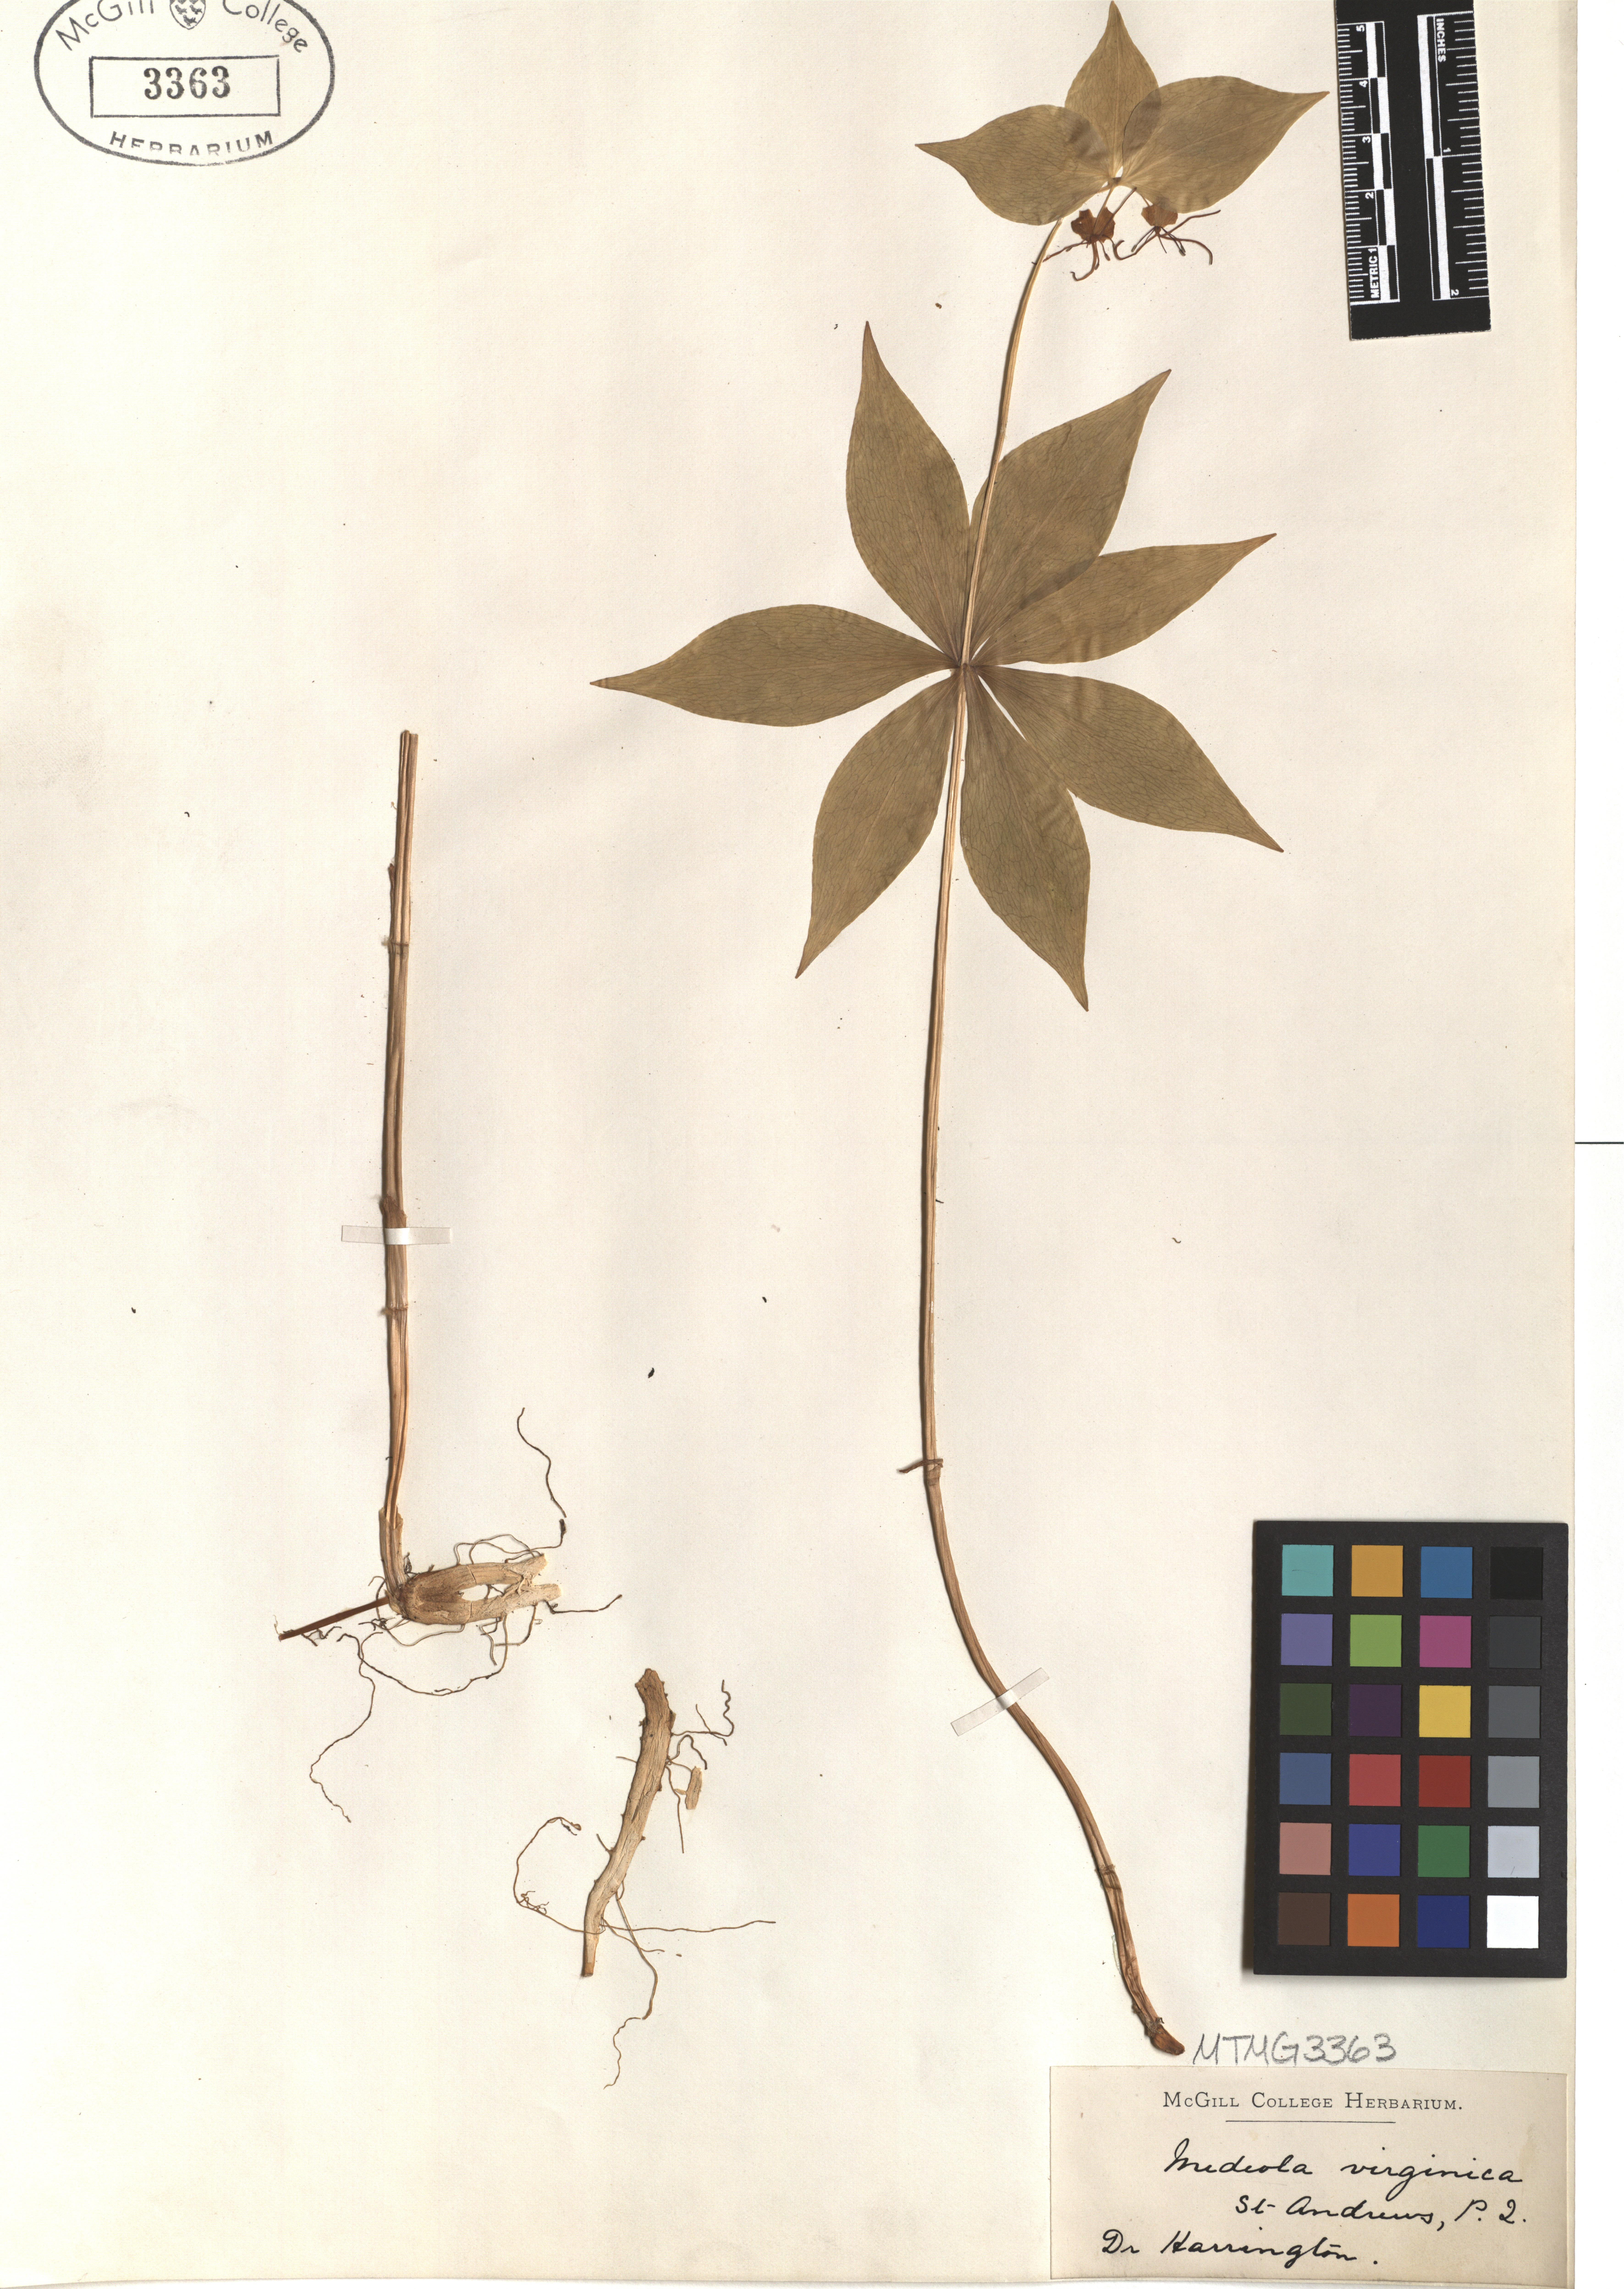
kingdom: Plantae
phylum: Tracheophyta
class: Liliopsida
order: Liliales
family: Liliaceae
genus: Medeola
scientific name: Medeola virginiana
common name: Indian cucumber-root
